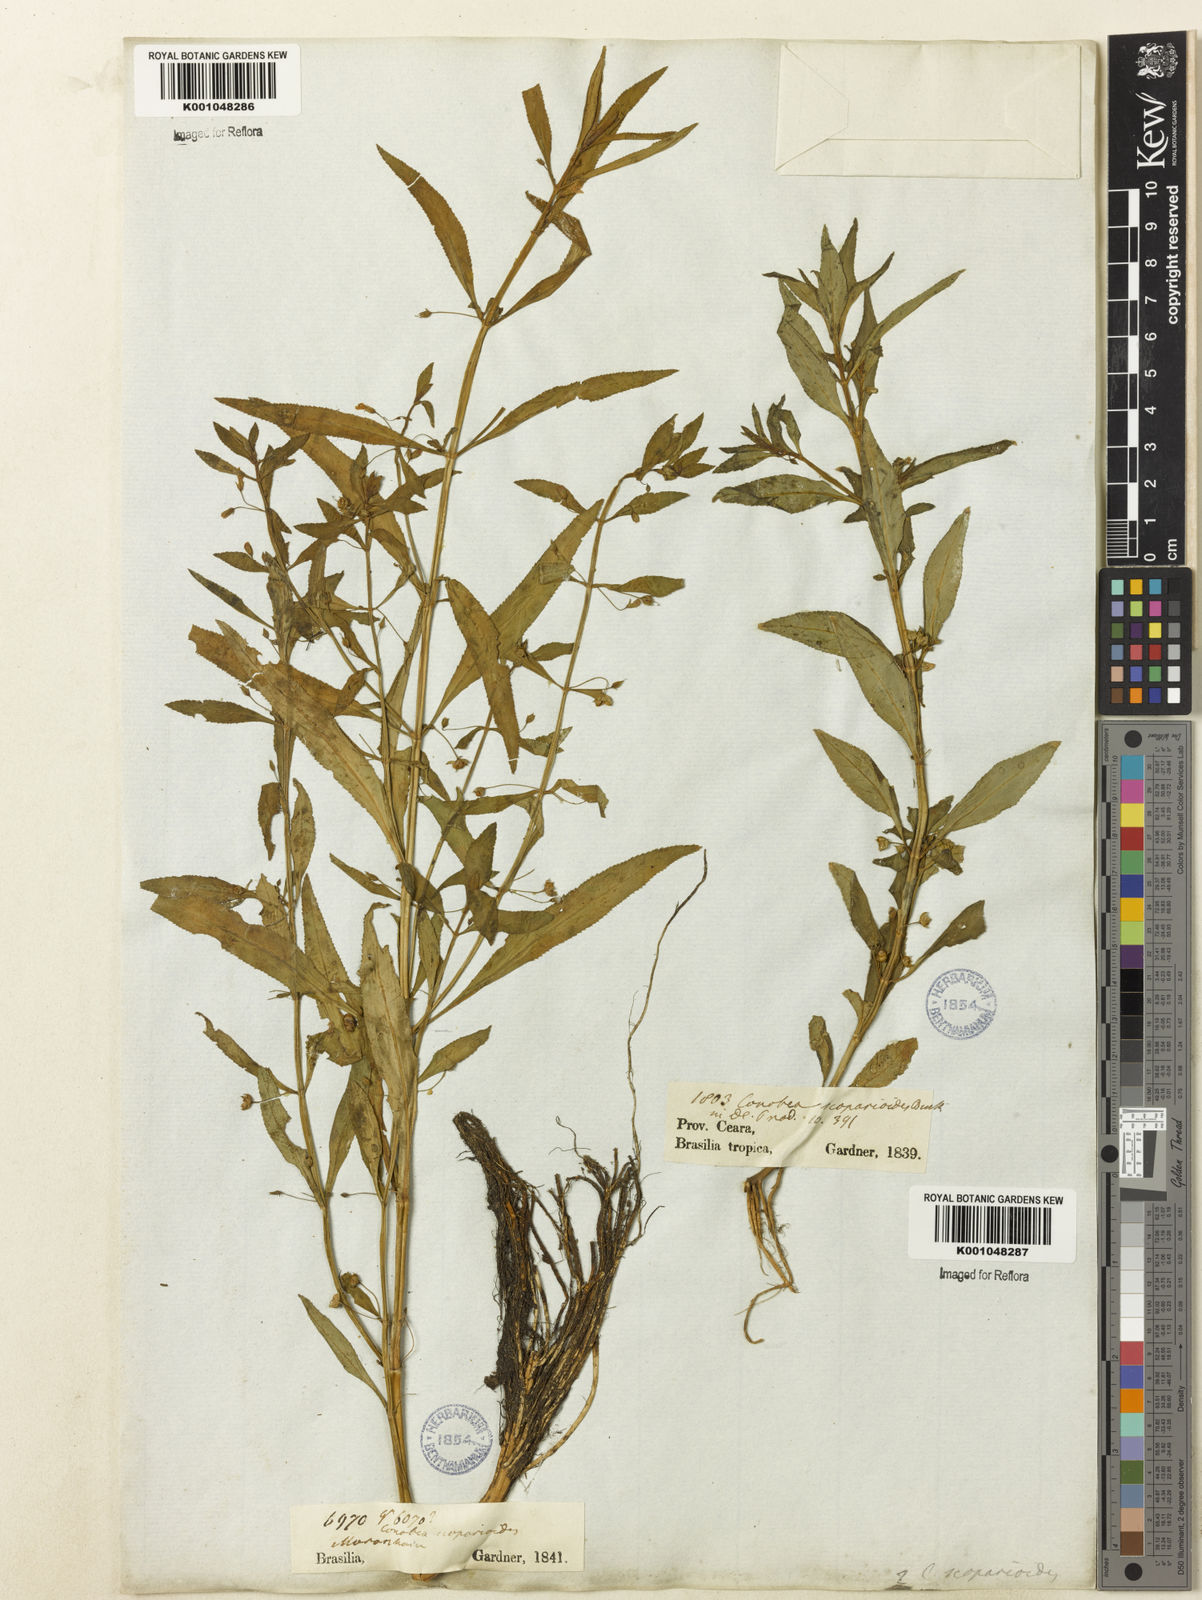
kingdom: Plantae
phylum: Tracheophyta
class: Magnoliopsida
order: Lamiales
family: Plantaginaceae
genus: Conobea
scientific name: Conobea scoparioides
